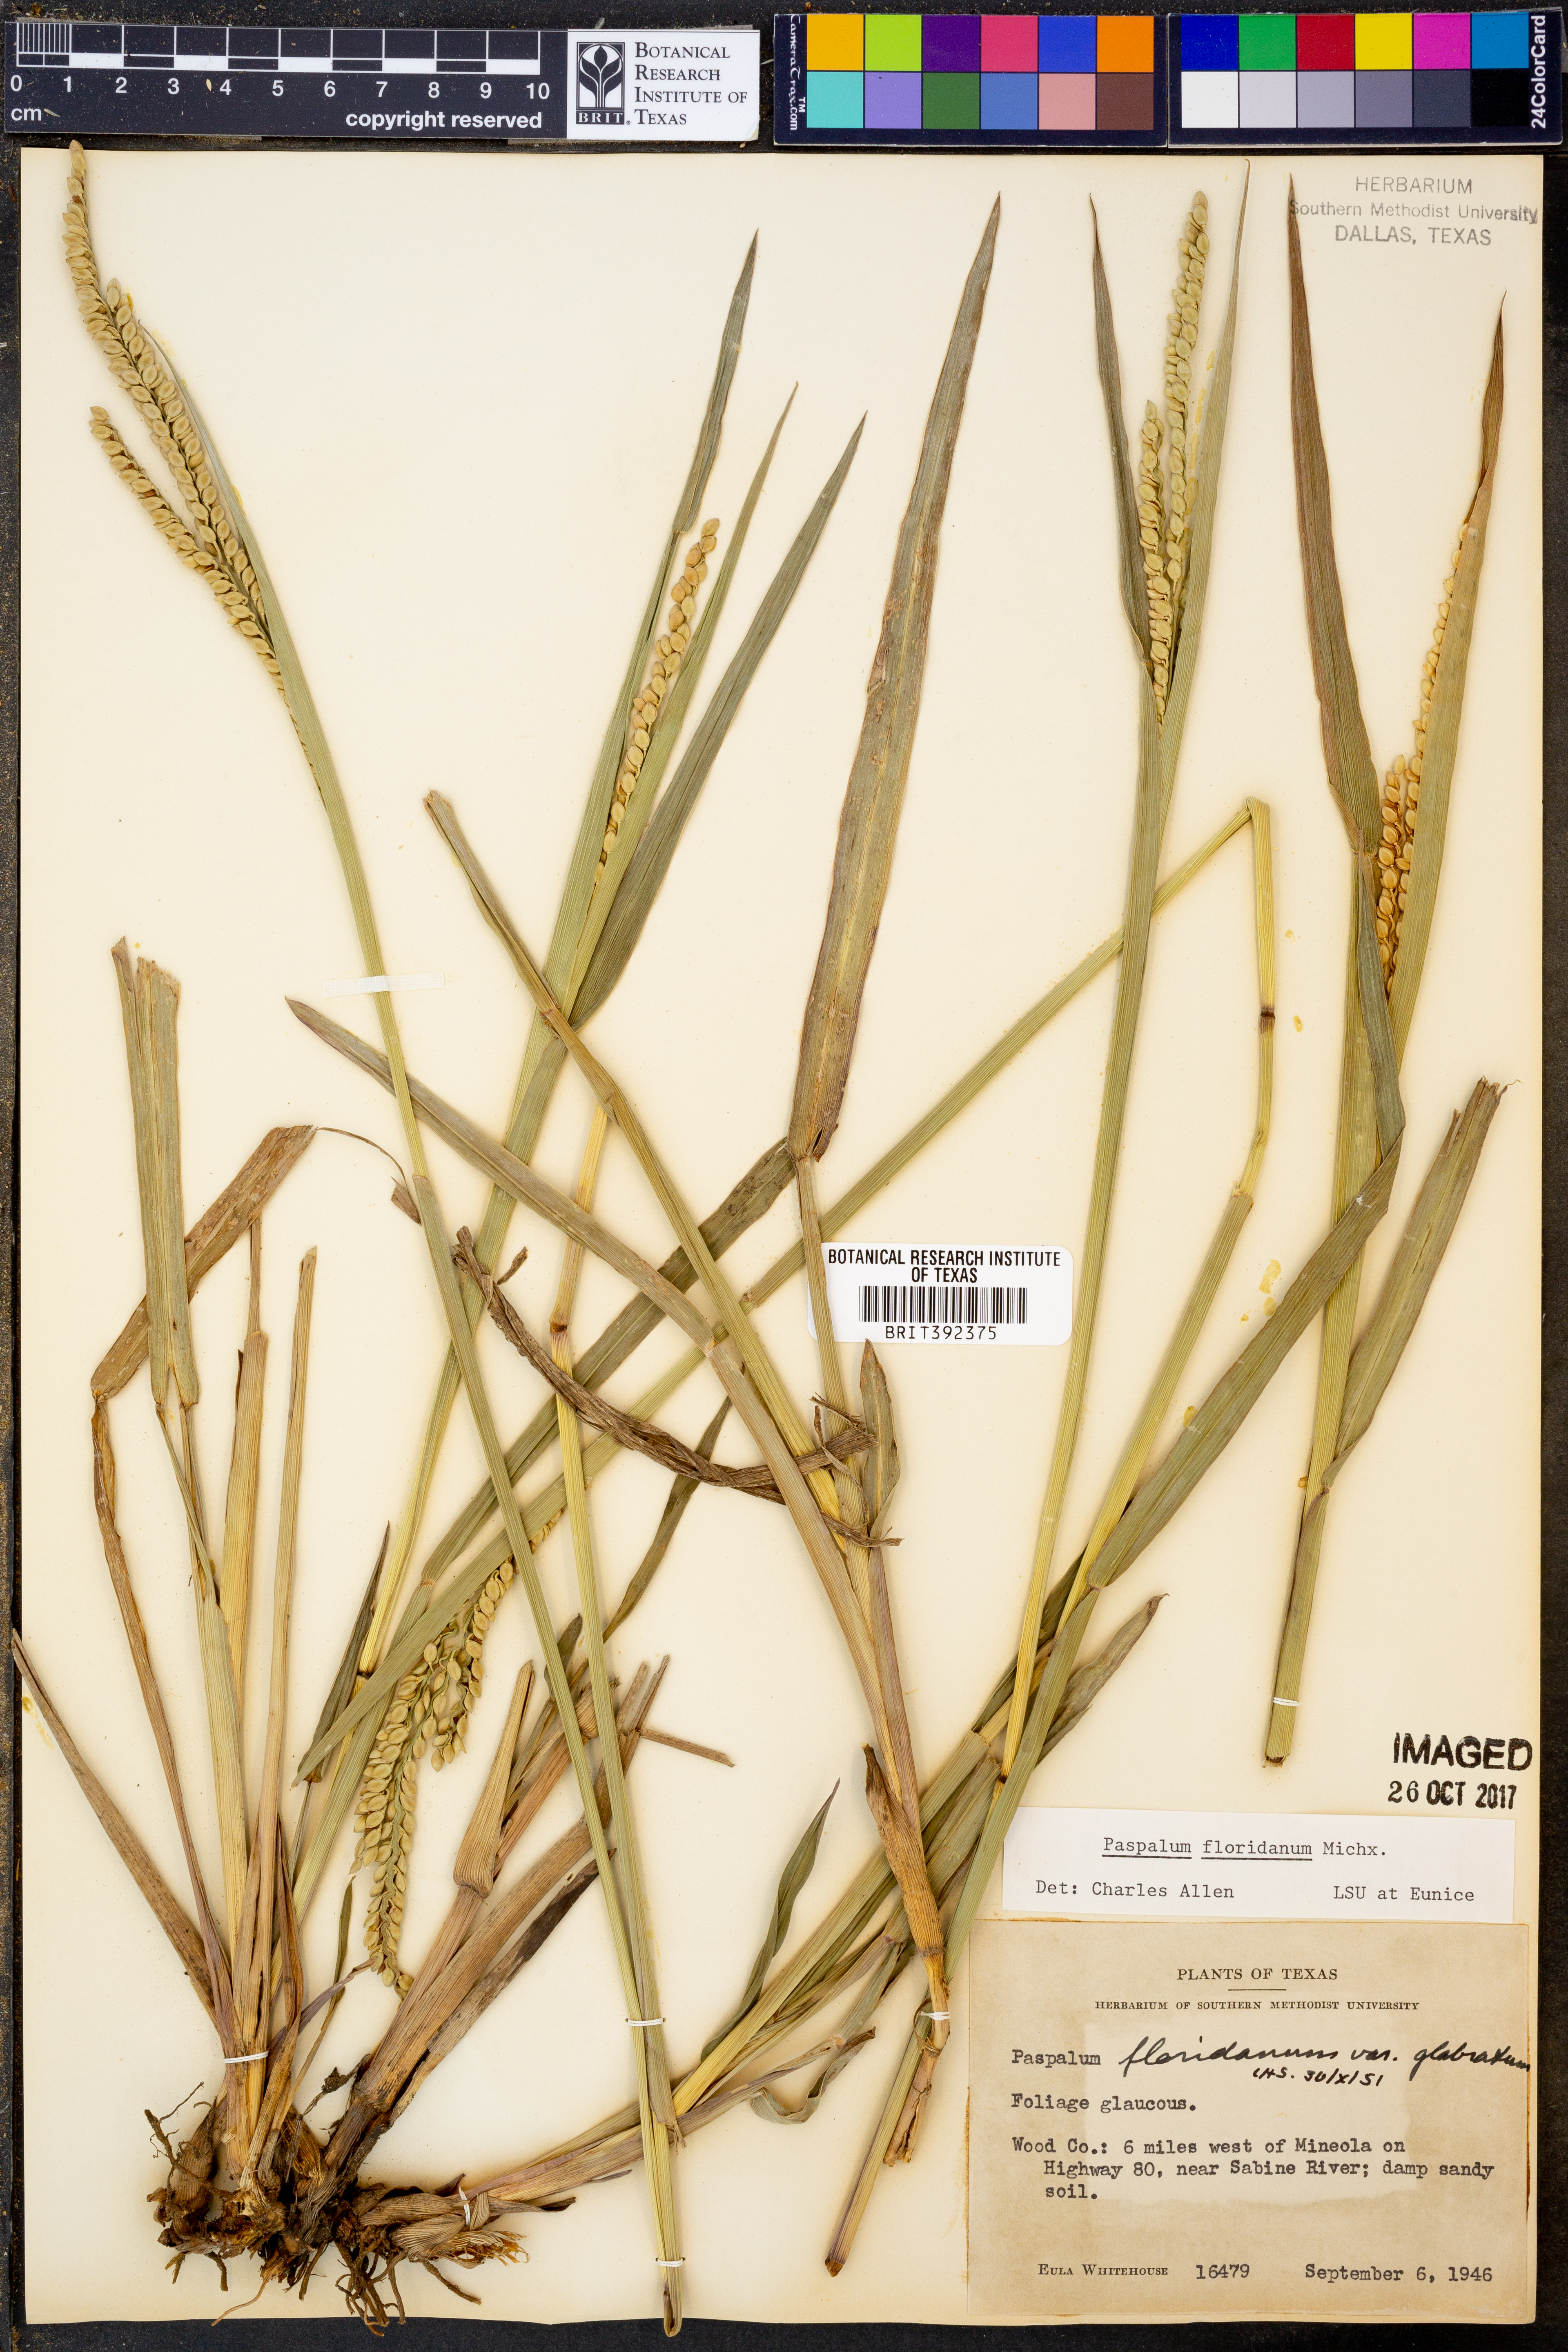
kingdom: Plantae
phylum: Tracheophyta
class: Liliopsida
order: Poales
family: Poaceae
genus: Paspalum
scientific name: Paspalum floridanum
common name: Florida paspalum
